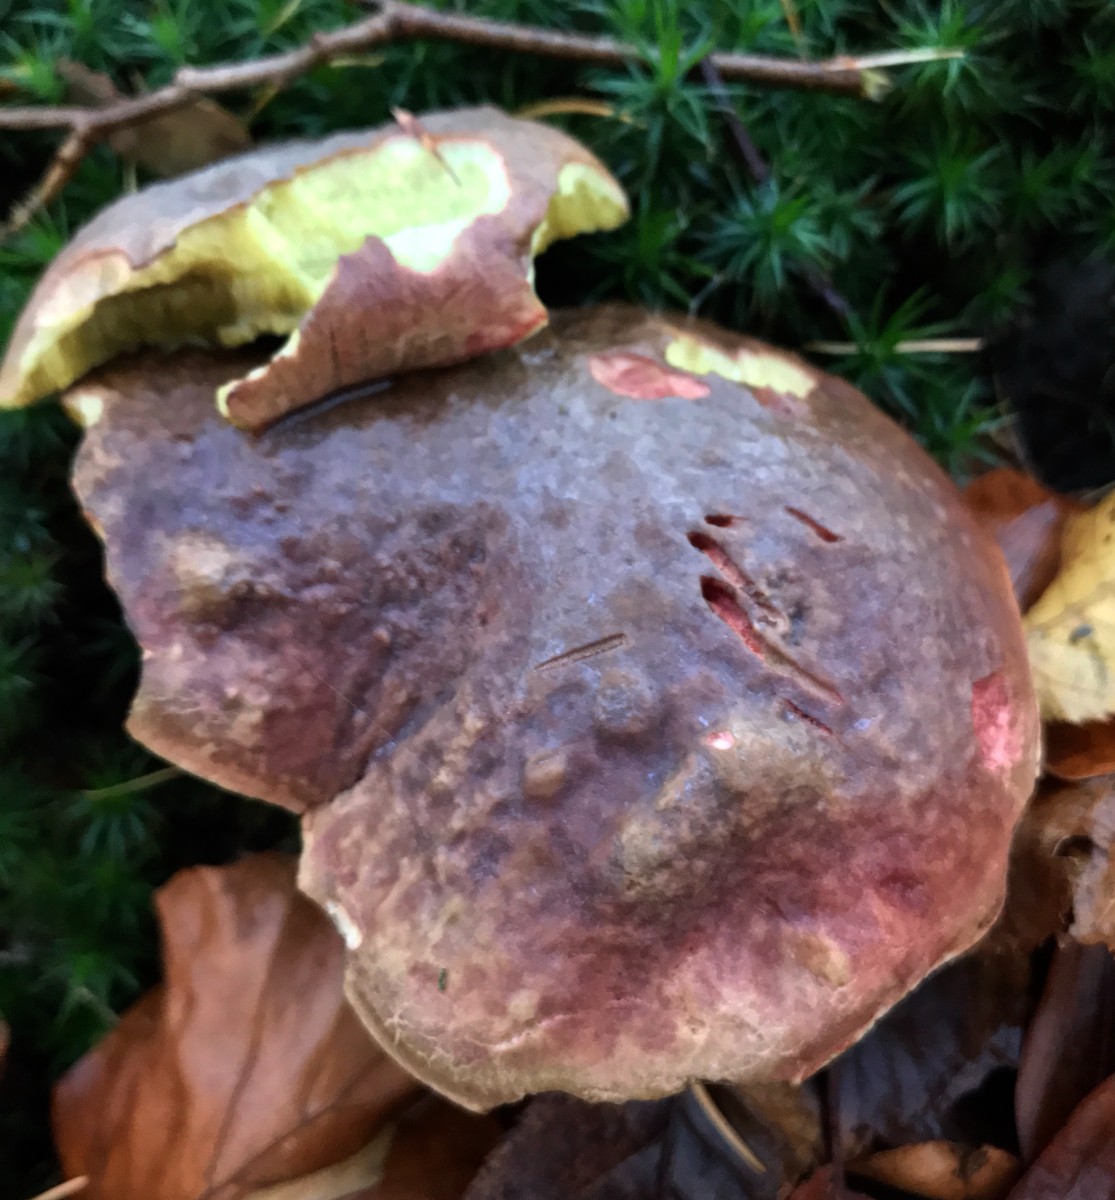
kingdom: Fungi
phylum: Basidiomycota
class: Agaricomycetes
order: Boletales
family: Boletaceae
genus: Xerocomellus
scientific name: Xerocomellus pruinatus
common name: dugget rørhat
